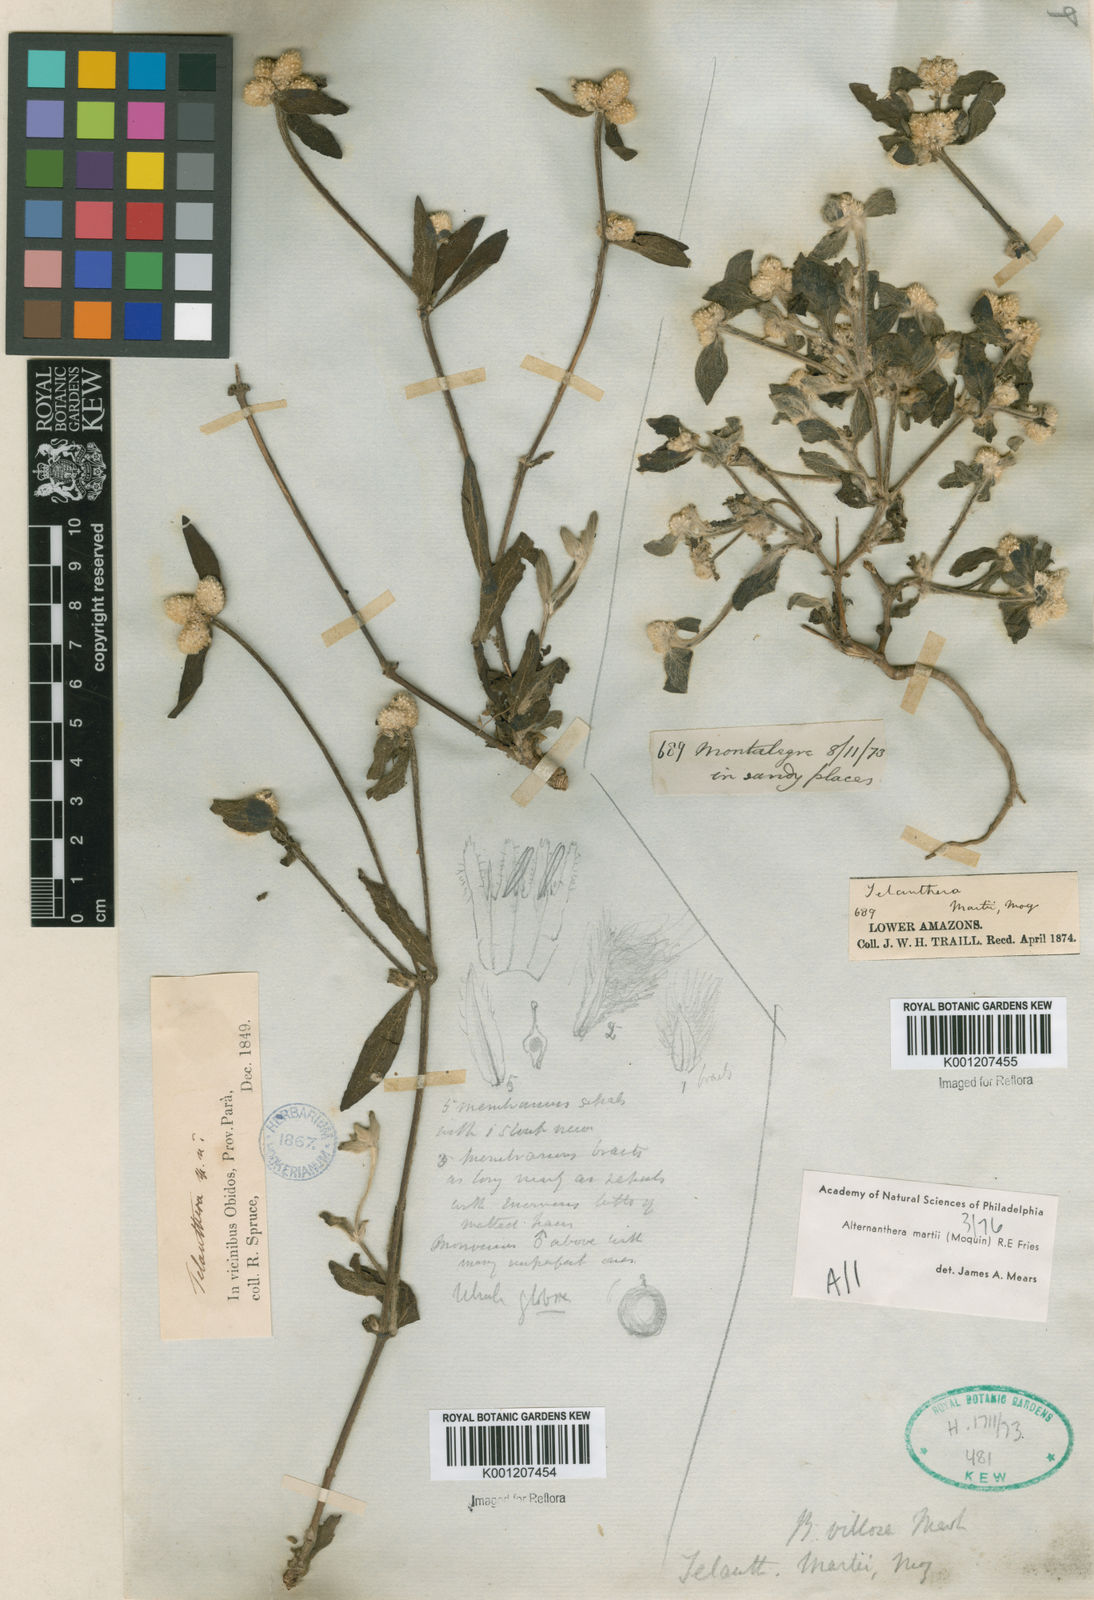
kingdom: Plantae
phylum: Tracheophyta
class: Magnoliopsida
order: Caryophyllales
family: Amaranthaceae
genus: Alternanthera
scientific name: Alternanthera martii
